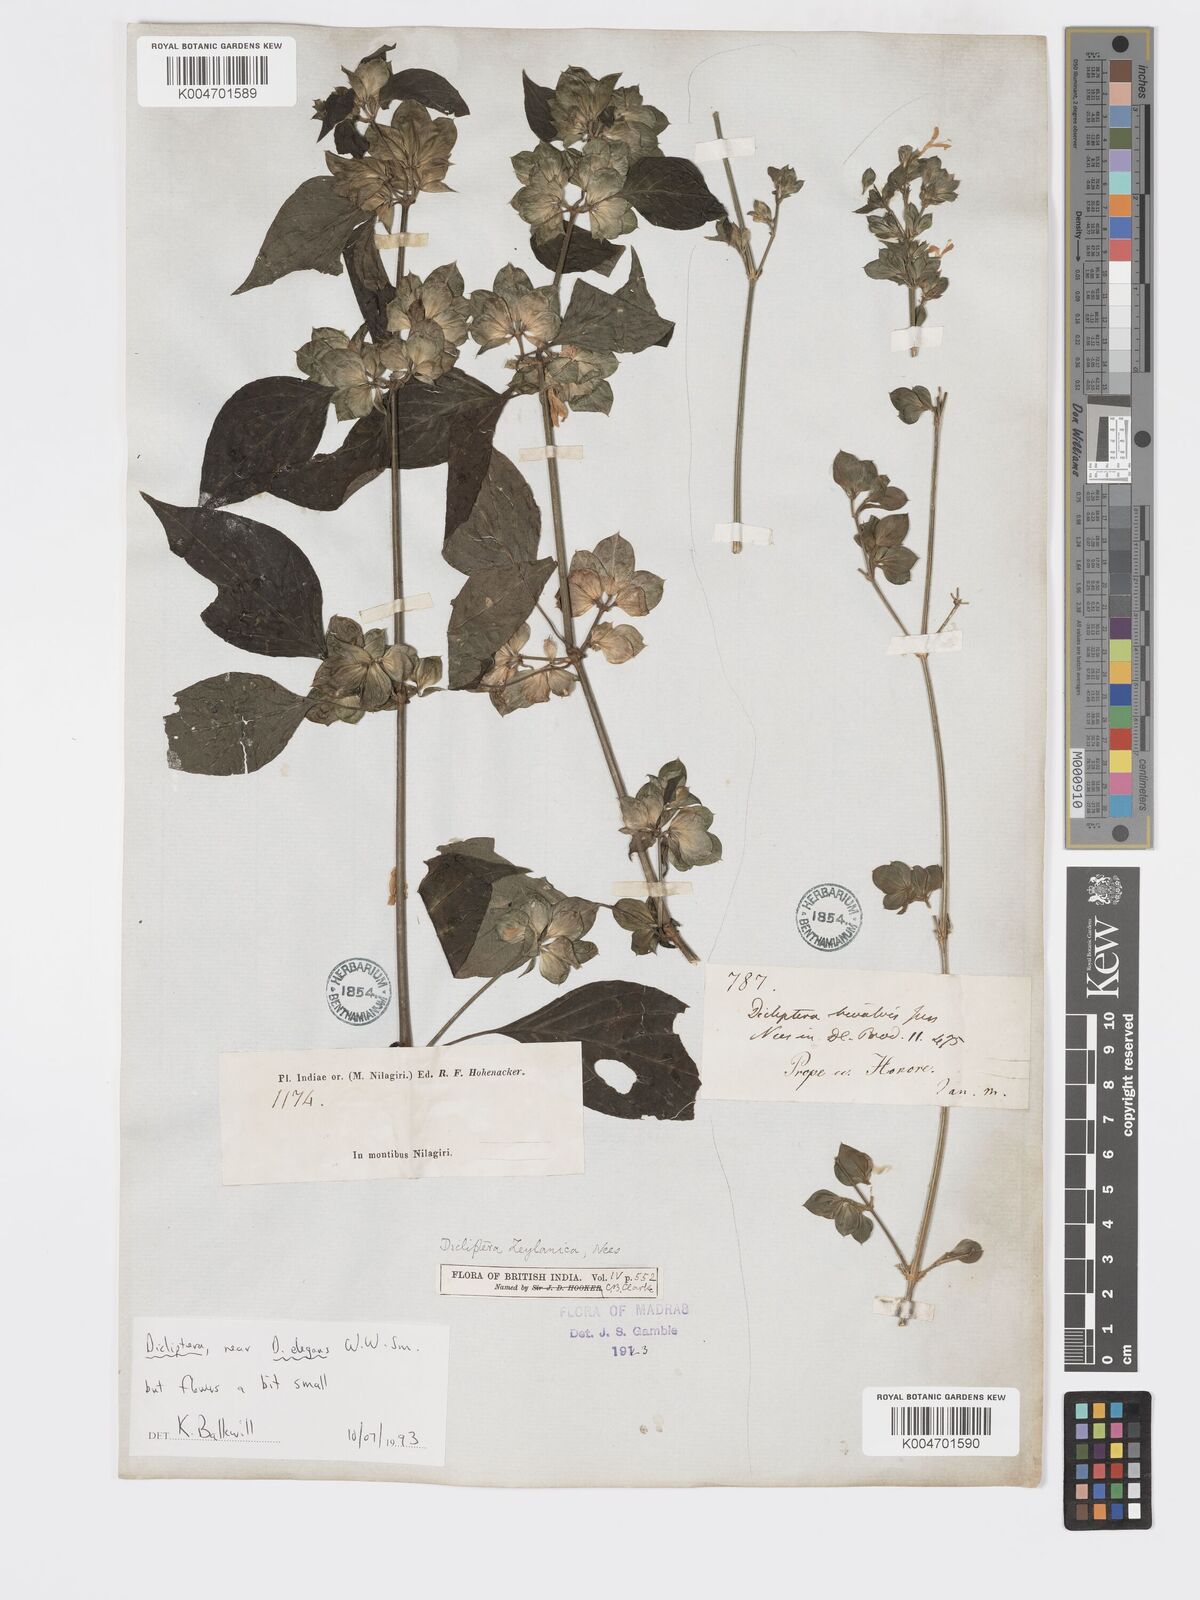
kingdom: Plantae
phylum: Tracheophyta
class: Magnoliopsida
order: Lamiales
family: Acanthaceae
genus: Dicliptera
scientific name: Dicliptera foetida
